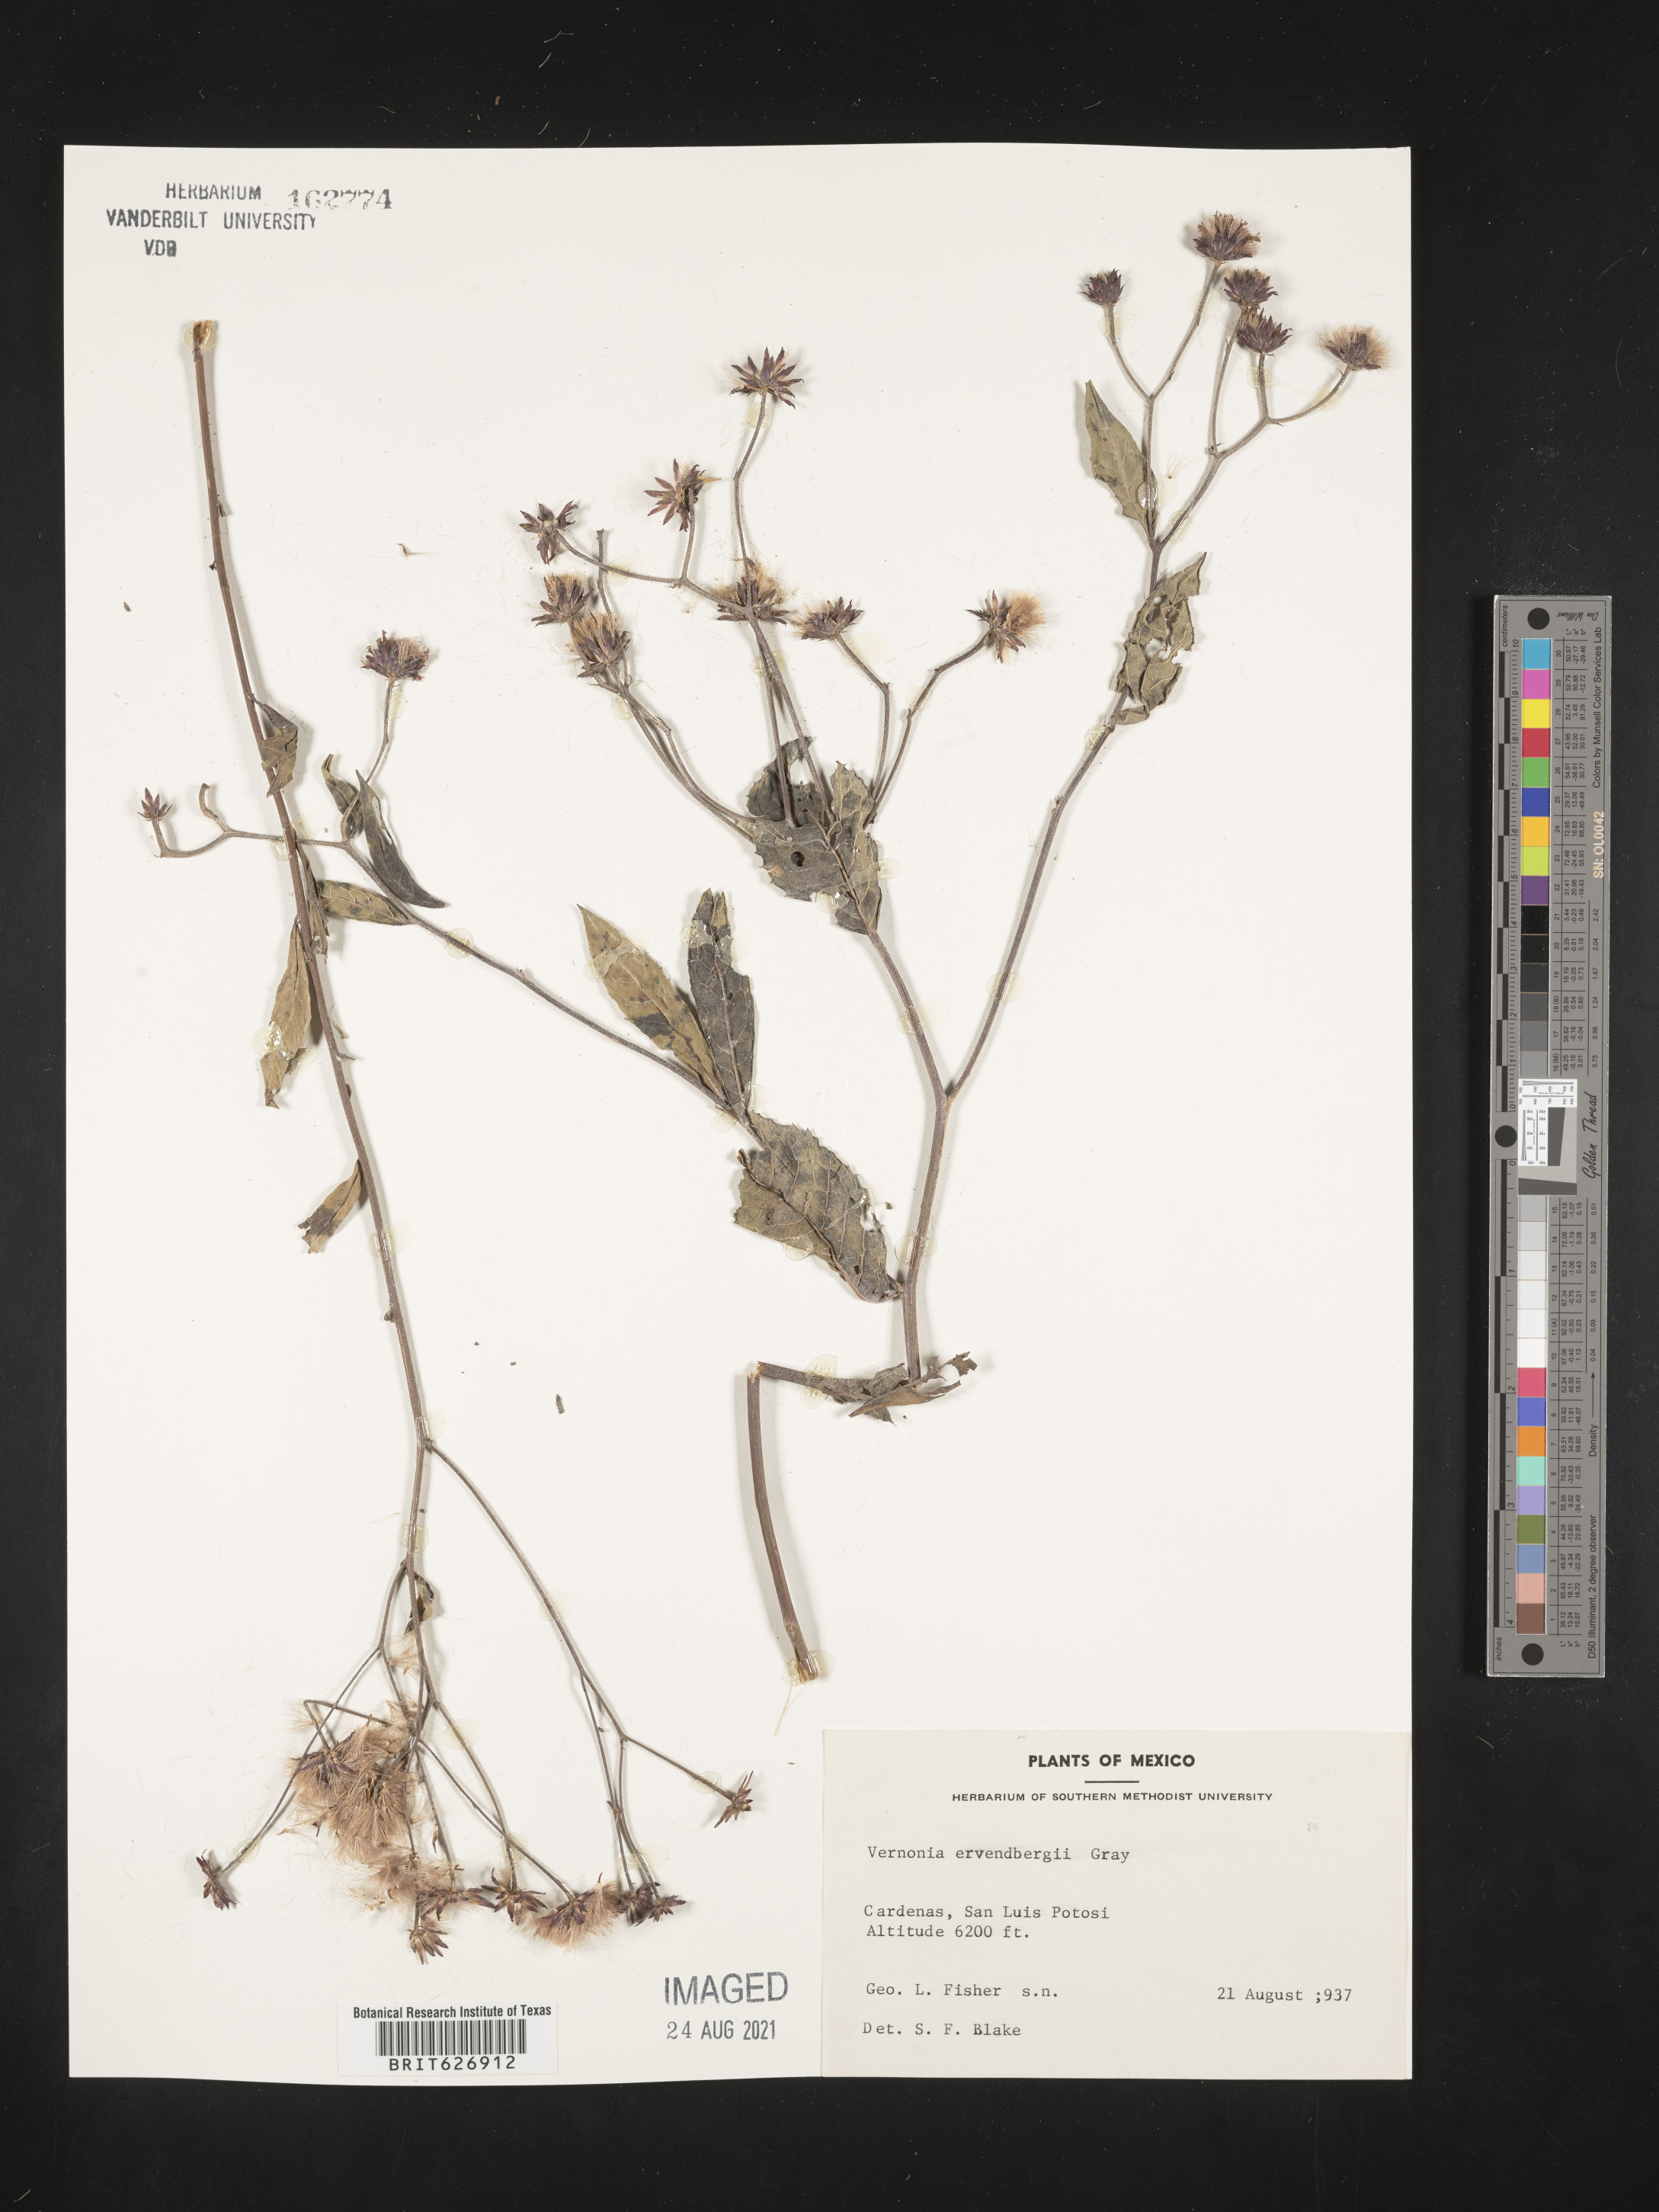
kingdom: Plantae
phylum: Tracheophyta
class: Magnoliopsida
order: Asterales
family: Asteraceae
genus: Vernonia
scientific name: Vernonia
